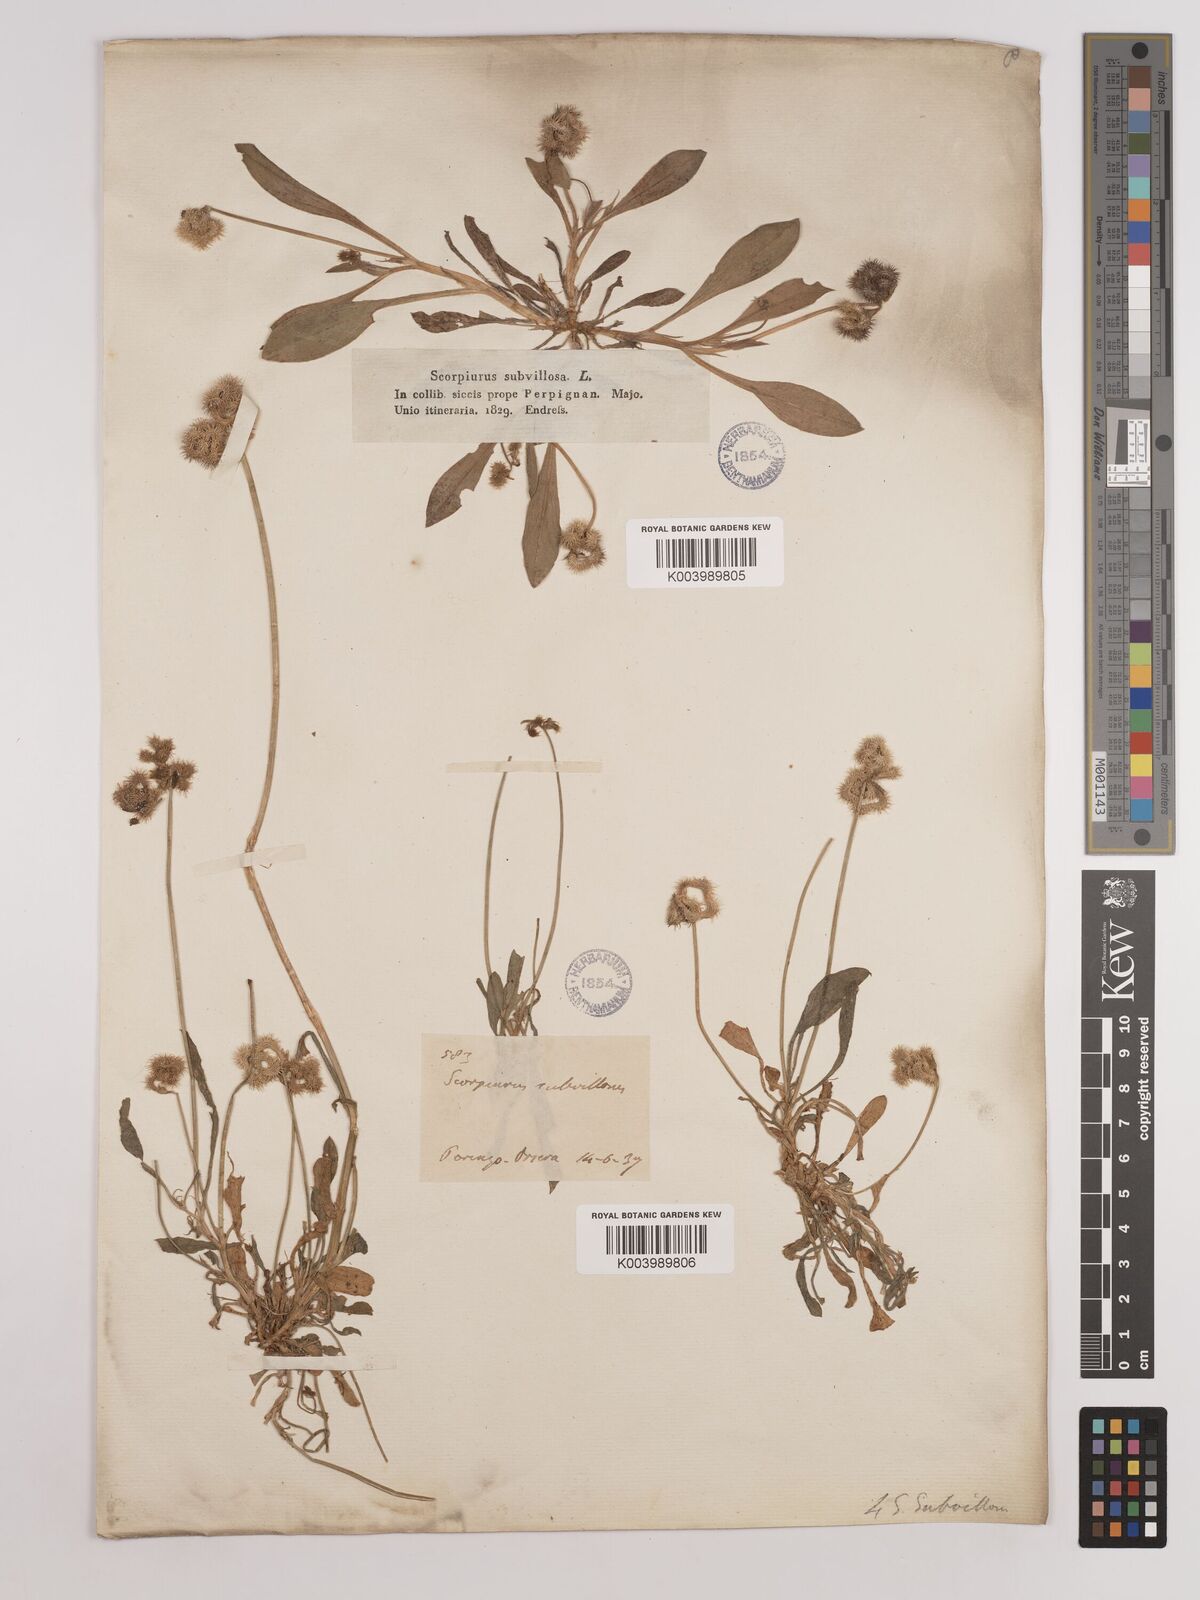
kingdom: Plantae
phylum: Tracheophyta
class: Magnoliopsida
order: Fabales
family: Fabaceae
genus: Scorpiurus
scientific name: Scorpiurus muricatus
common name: Caterpillar-plant
